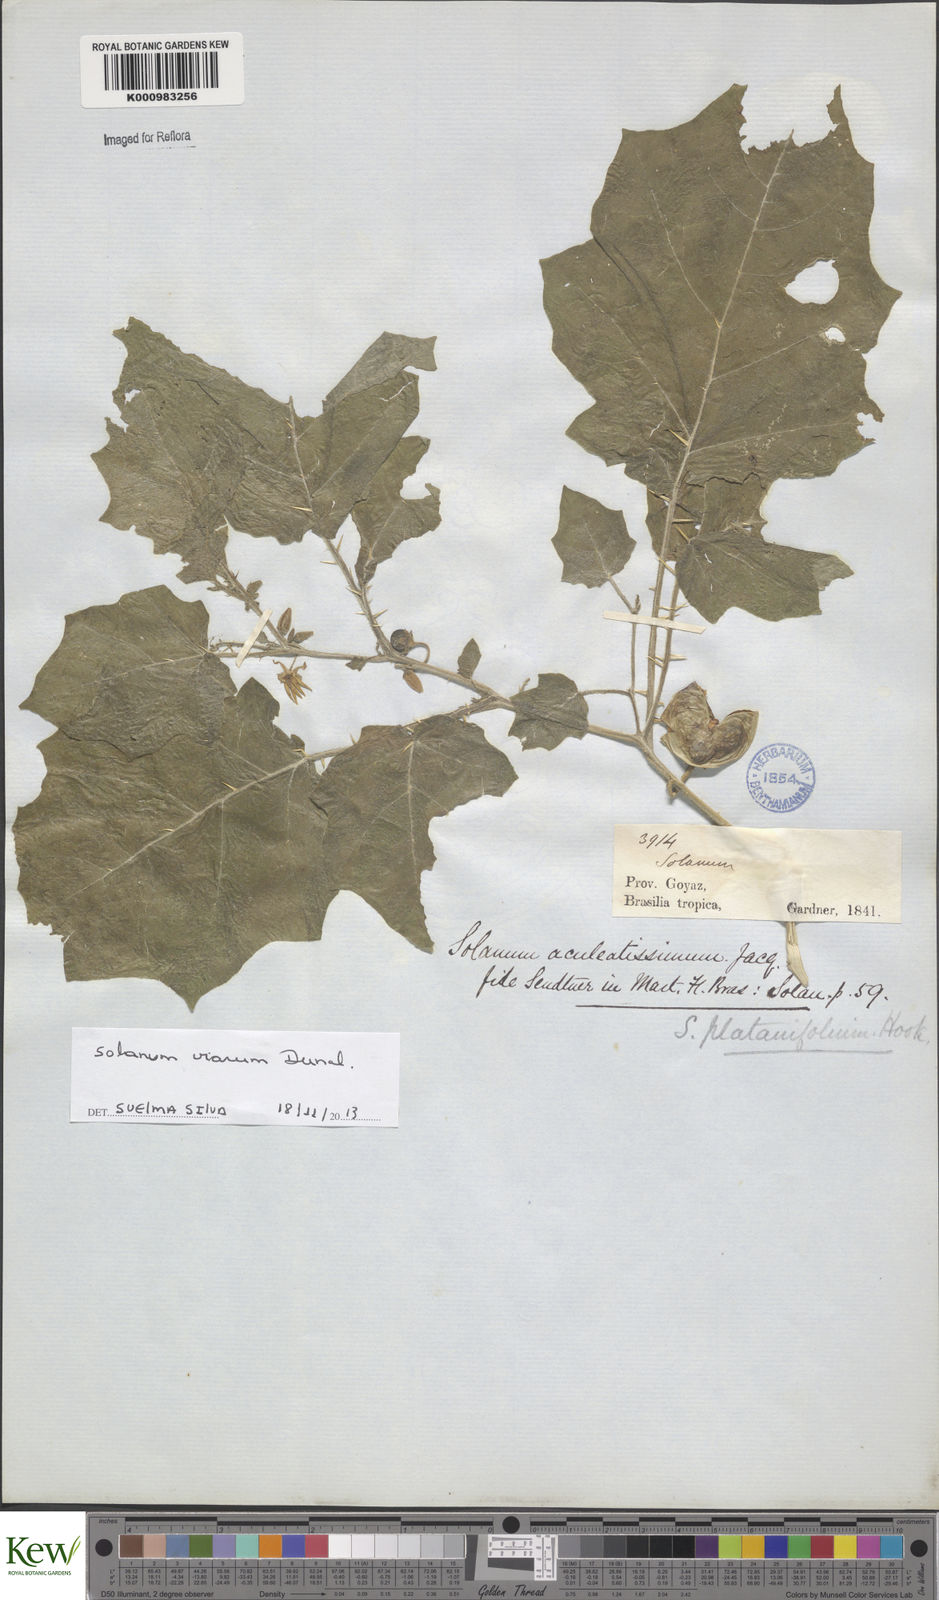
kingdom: Plantae
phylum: Tracheophyta
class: Magnoliopsida
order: Solanales
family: Solanaceae
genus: Solanum
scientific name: Solanum viarum
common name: Tropical soda apple
